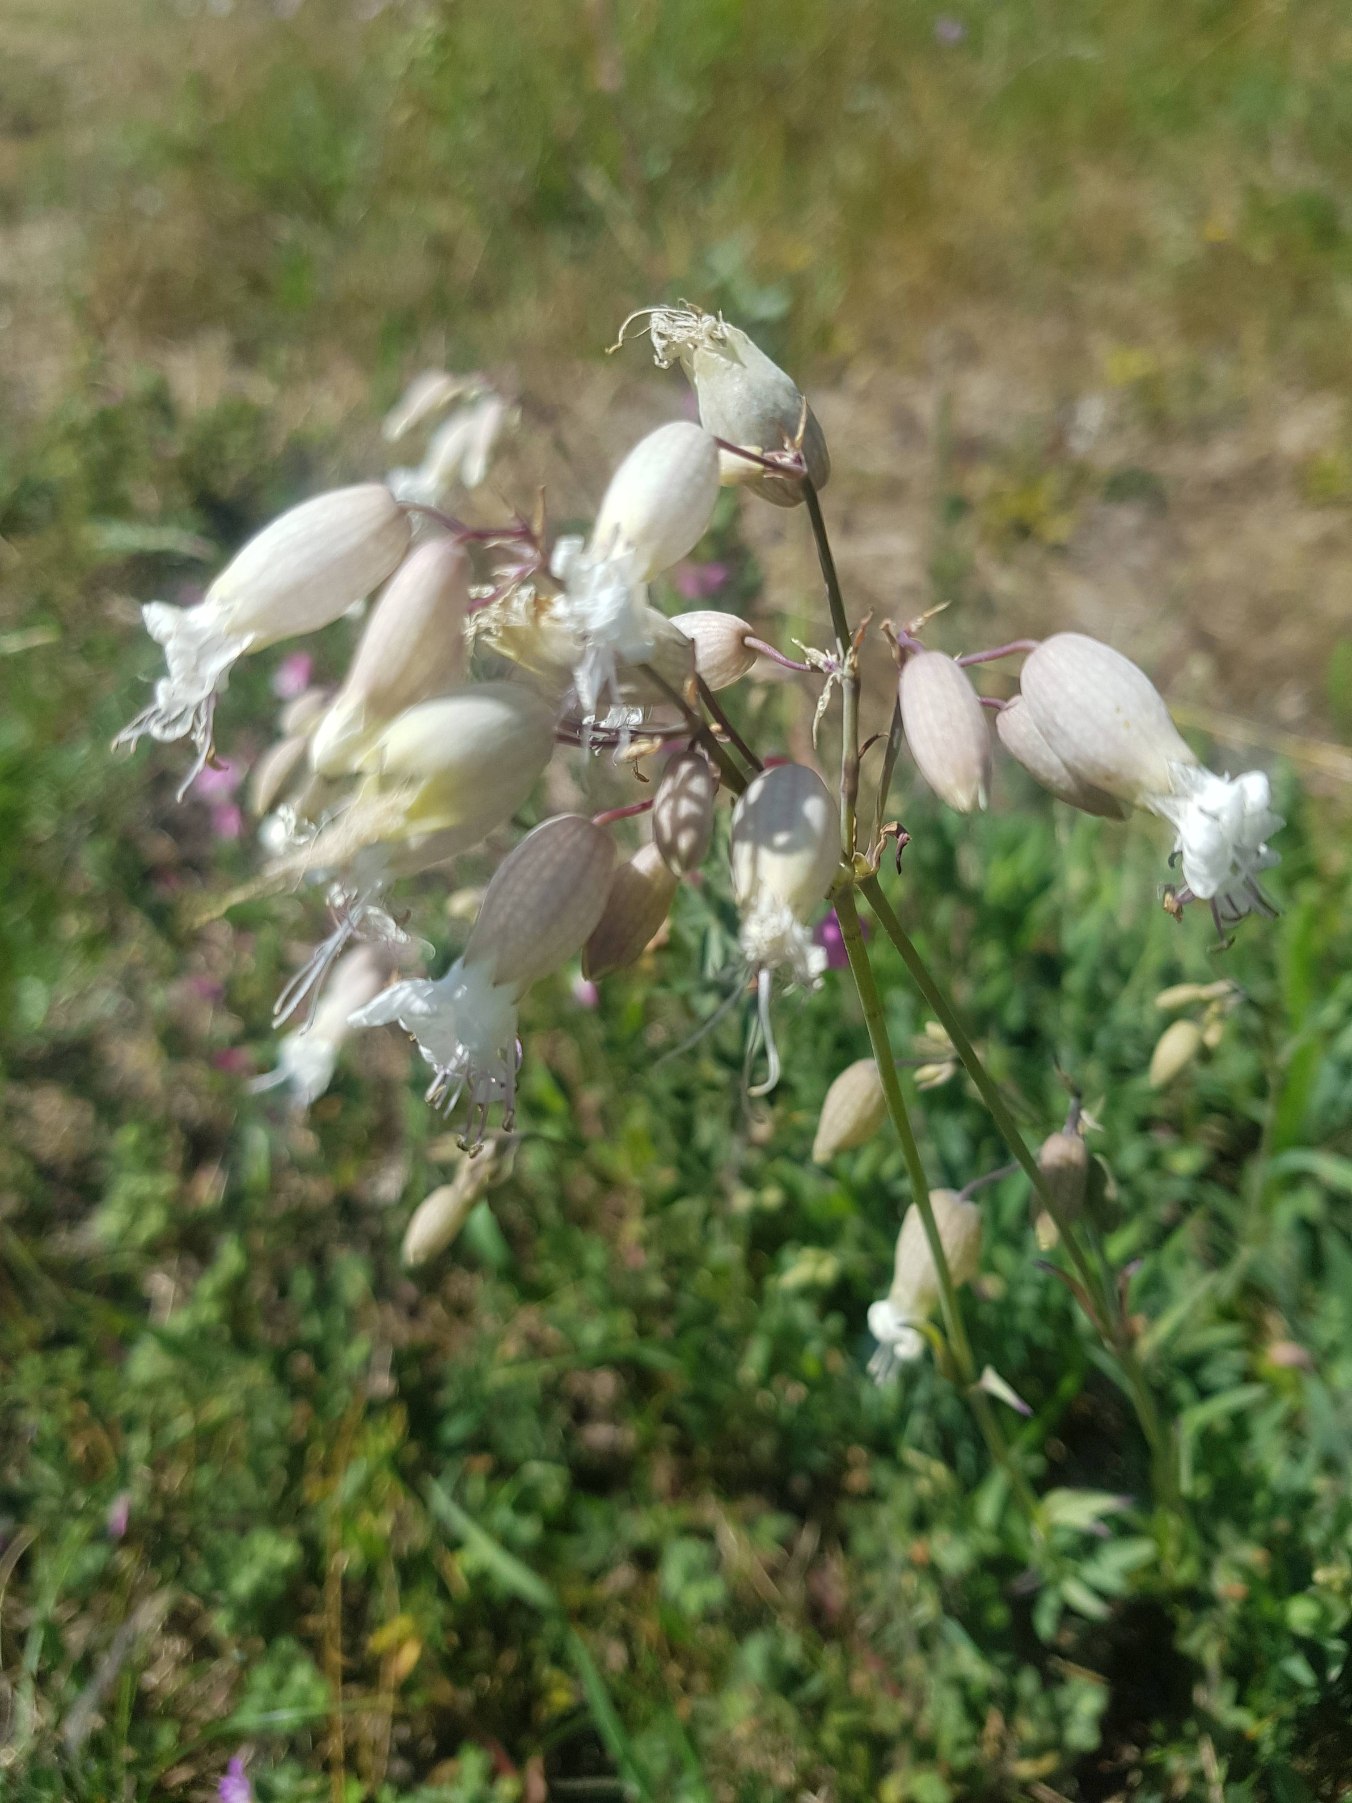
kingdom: Plantae
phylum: Tracheophyta
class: Magnoliopsida
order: Caryophyllales
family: Caryophyllaceae
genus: Silene
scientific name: Silene vulgaris
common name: Blæresmælde
